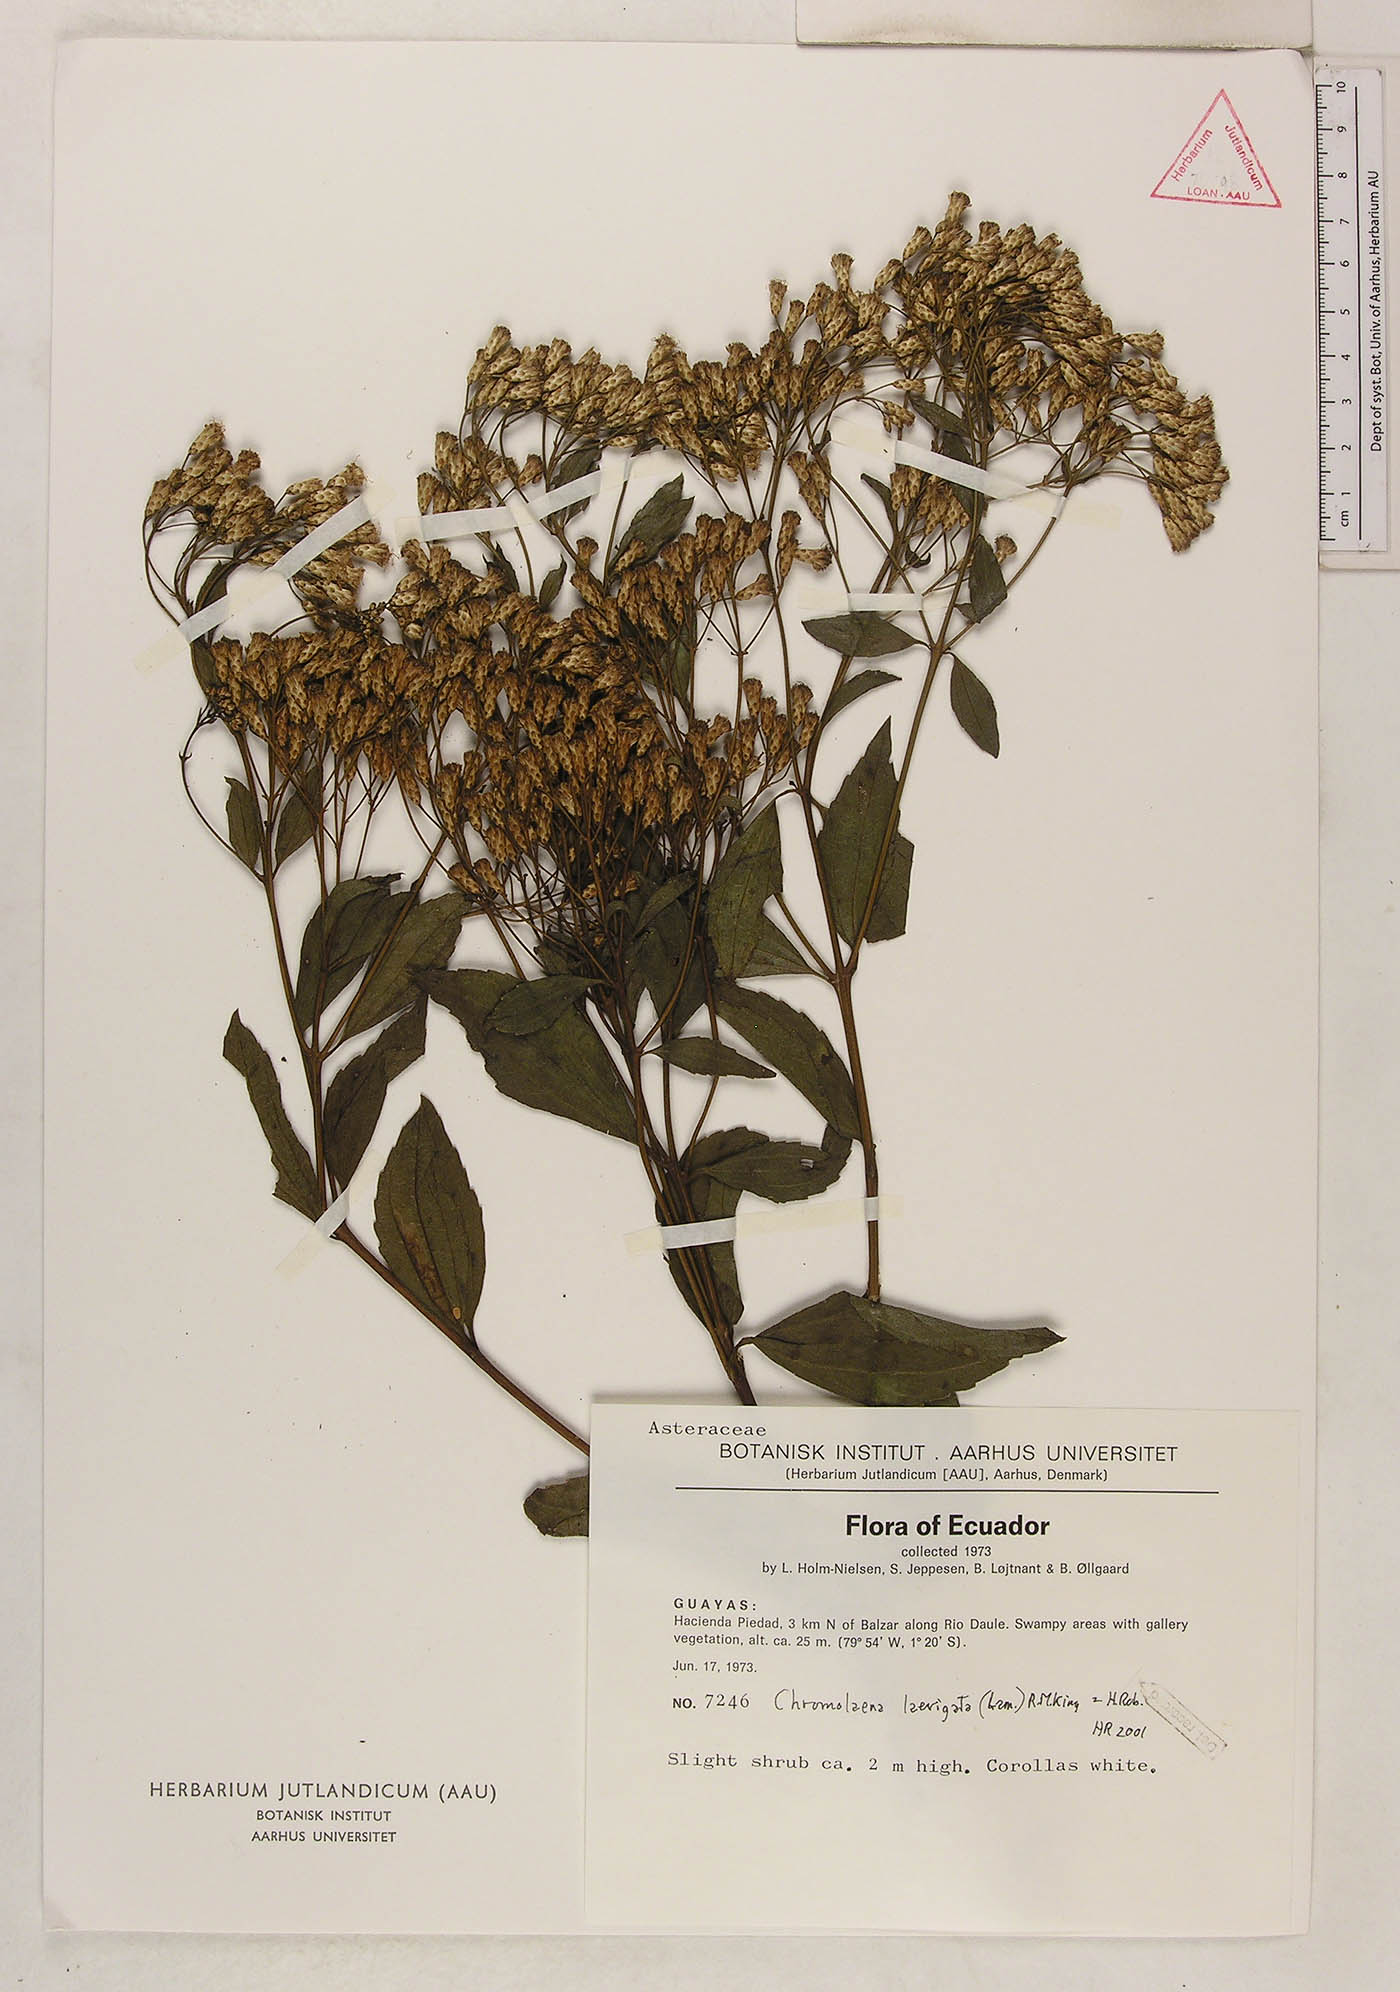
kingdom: Plantae
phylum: Tracheophyta
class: Magnoliopsida
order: Asterales
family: Asteraceae
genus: Chromolaena
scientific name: Chromolaena laevigata
